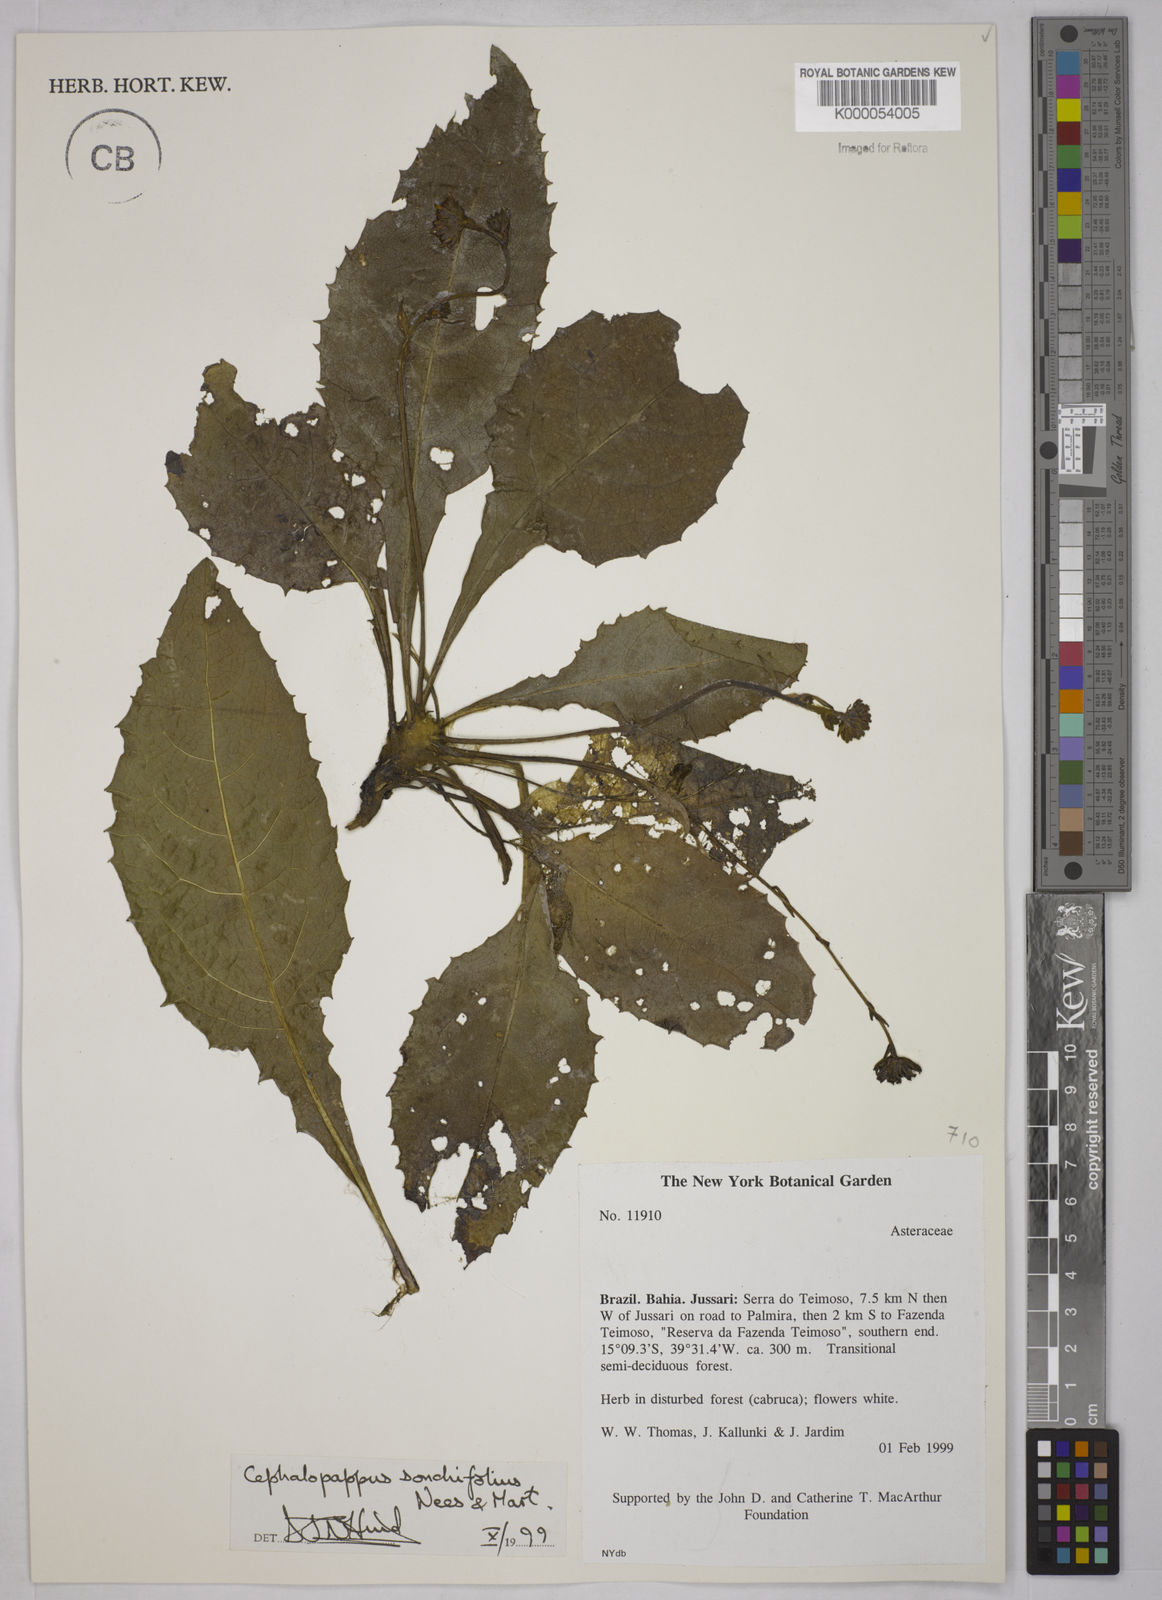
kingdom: Plantae
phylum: Tracheophyta
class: Magnoliopsida
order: Asterales
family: Asteraceae
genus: Cephalopappus
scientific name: Cephalopappus sonchifolius
